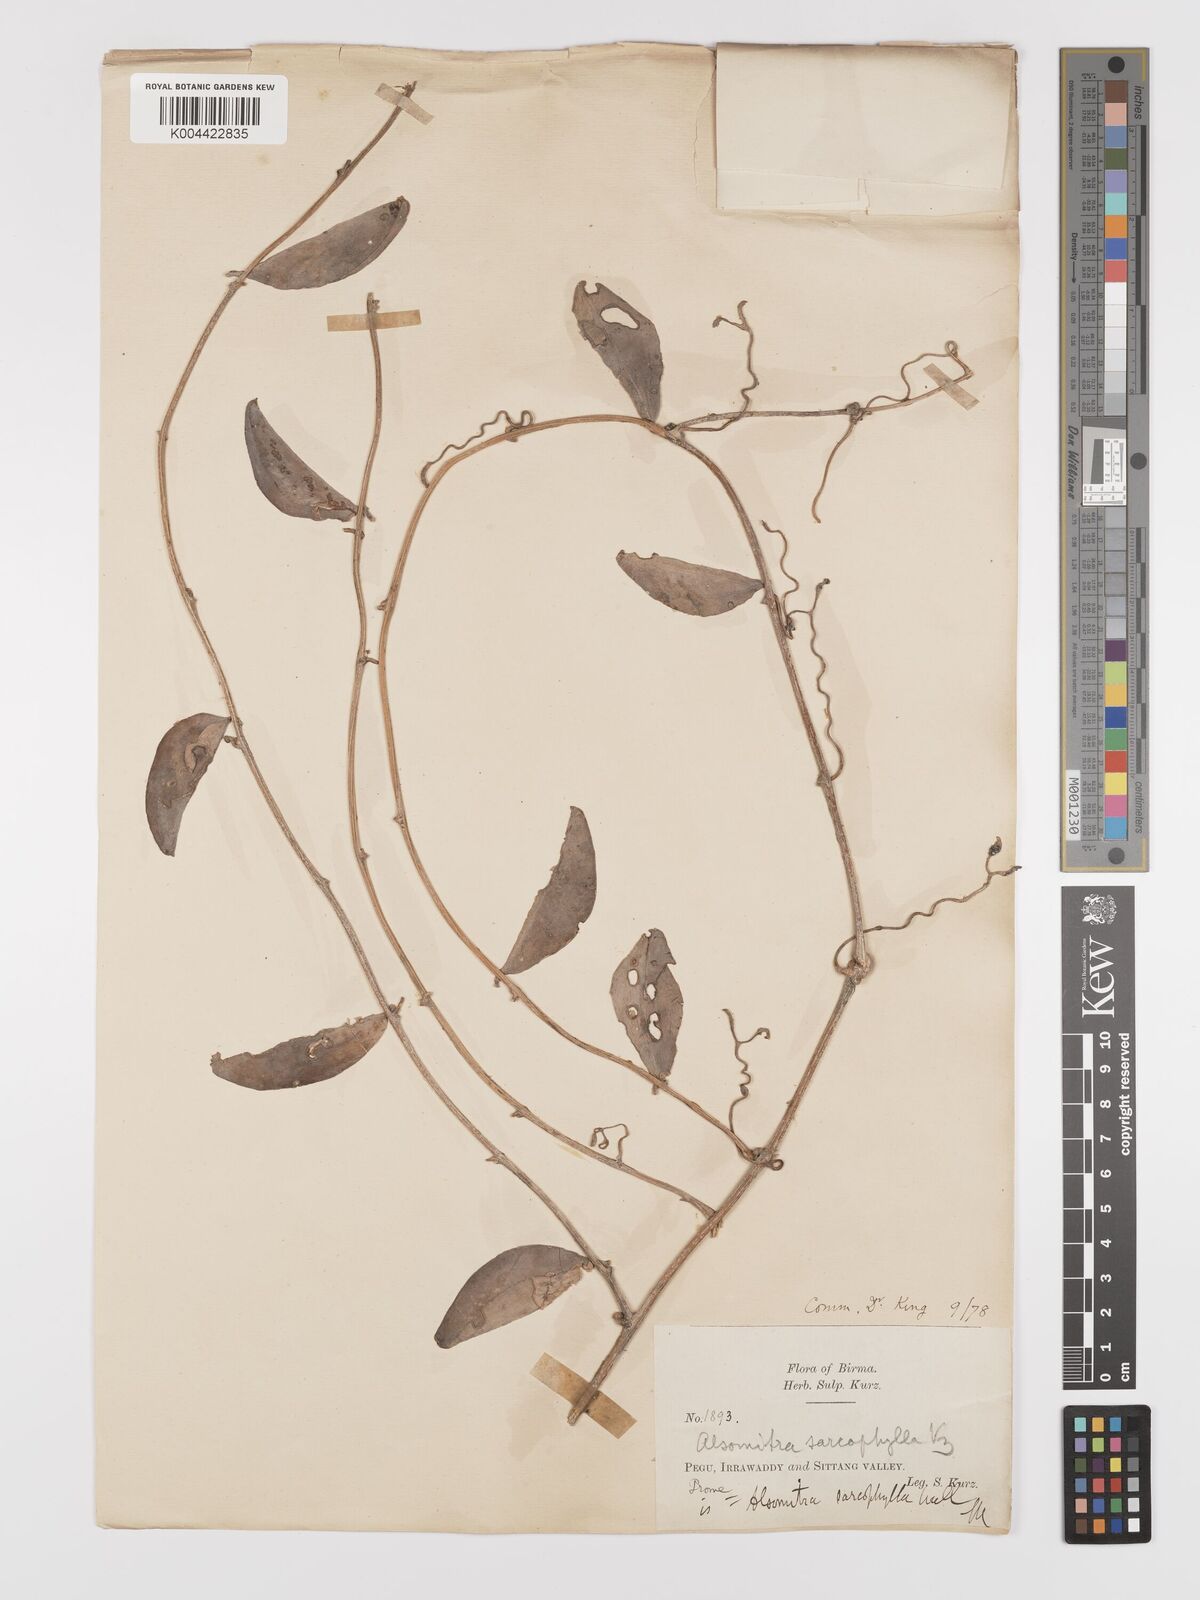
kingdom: Plantae
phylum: Tracheophyta
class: Magnoliopsida
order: Cucurbitales
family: Cucurbitaceae
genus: Neoalsomitra
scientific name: Neoalsomitra sarcophylla
